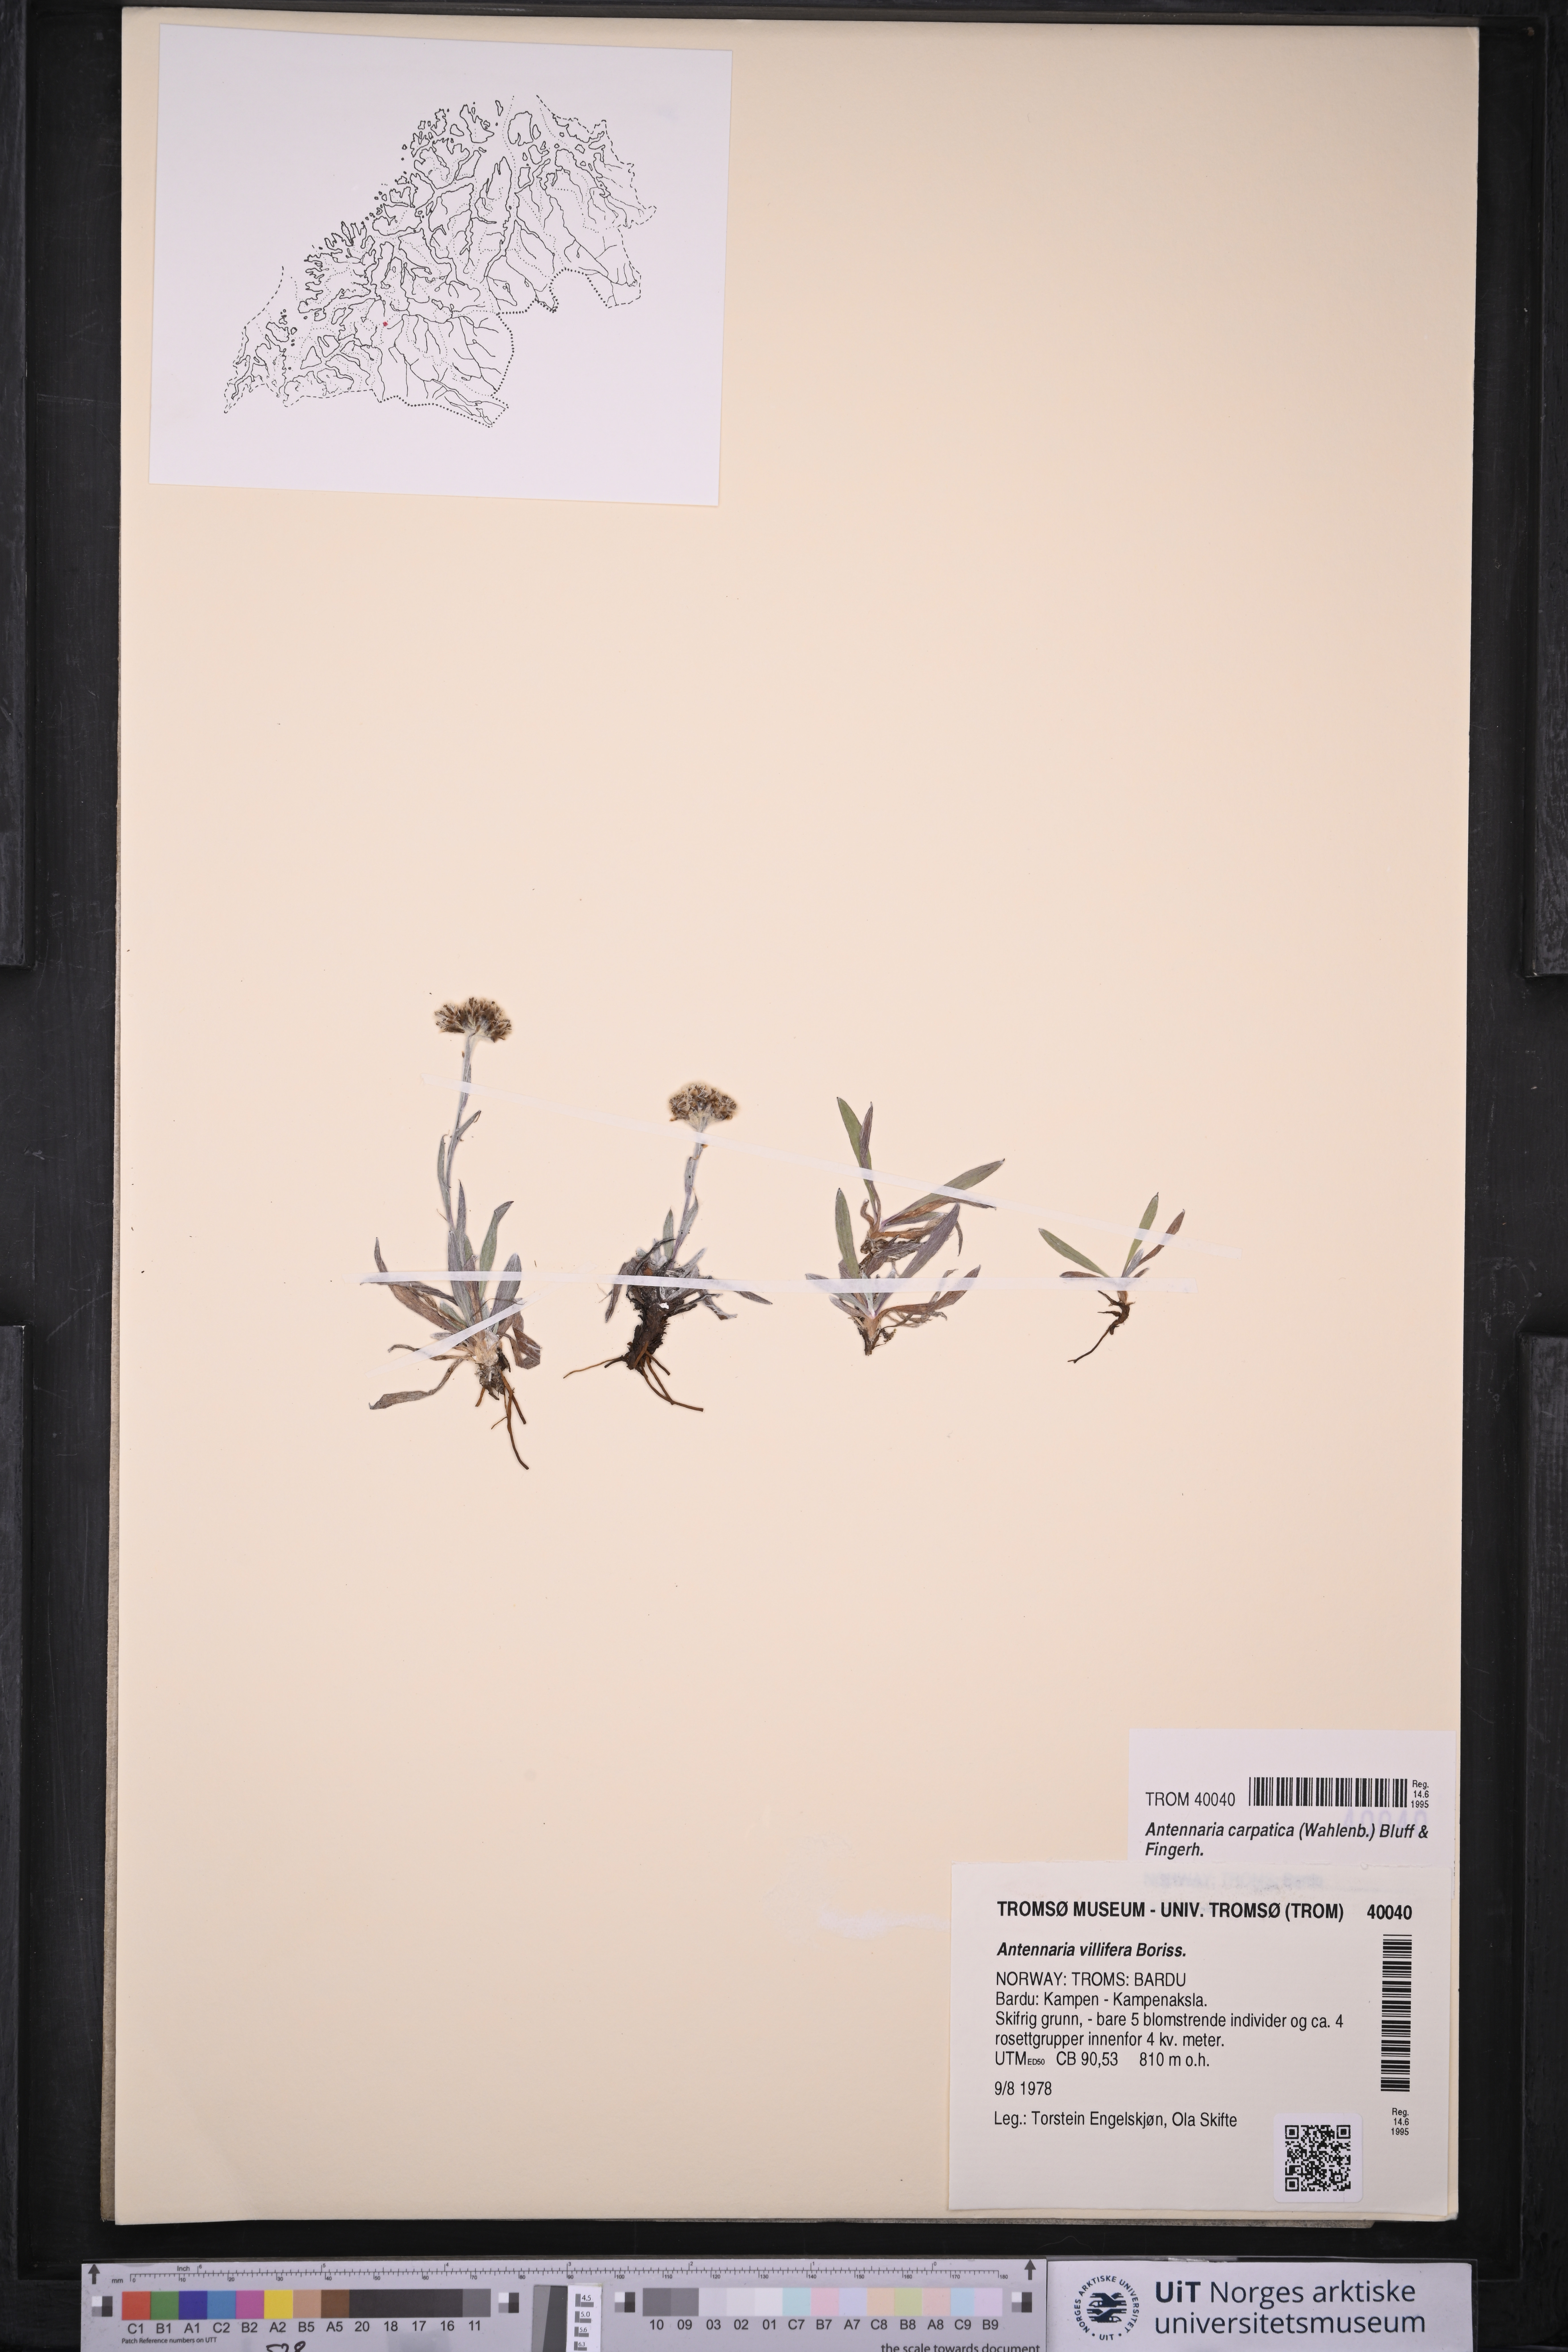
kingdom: Plantae
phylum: Tracheophyta
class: Magnoliopsida
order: Asterales
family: Asteraceae
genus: Antennaria
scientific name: Antennaria lanata
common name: Woolly pussytoes
